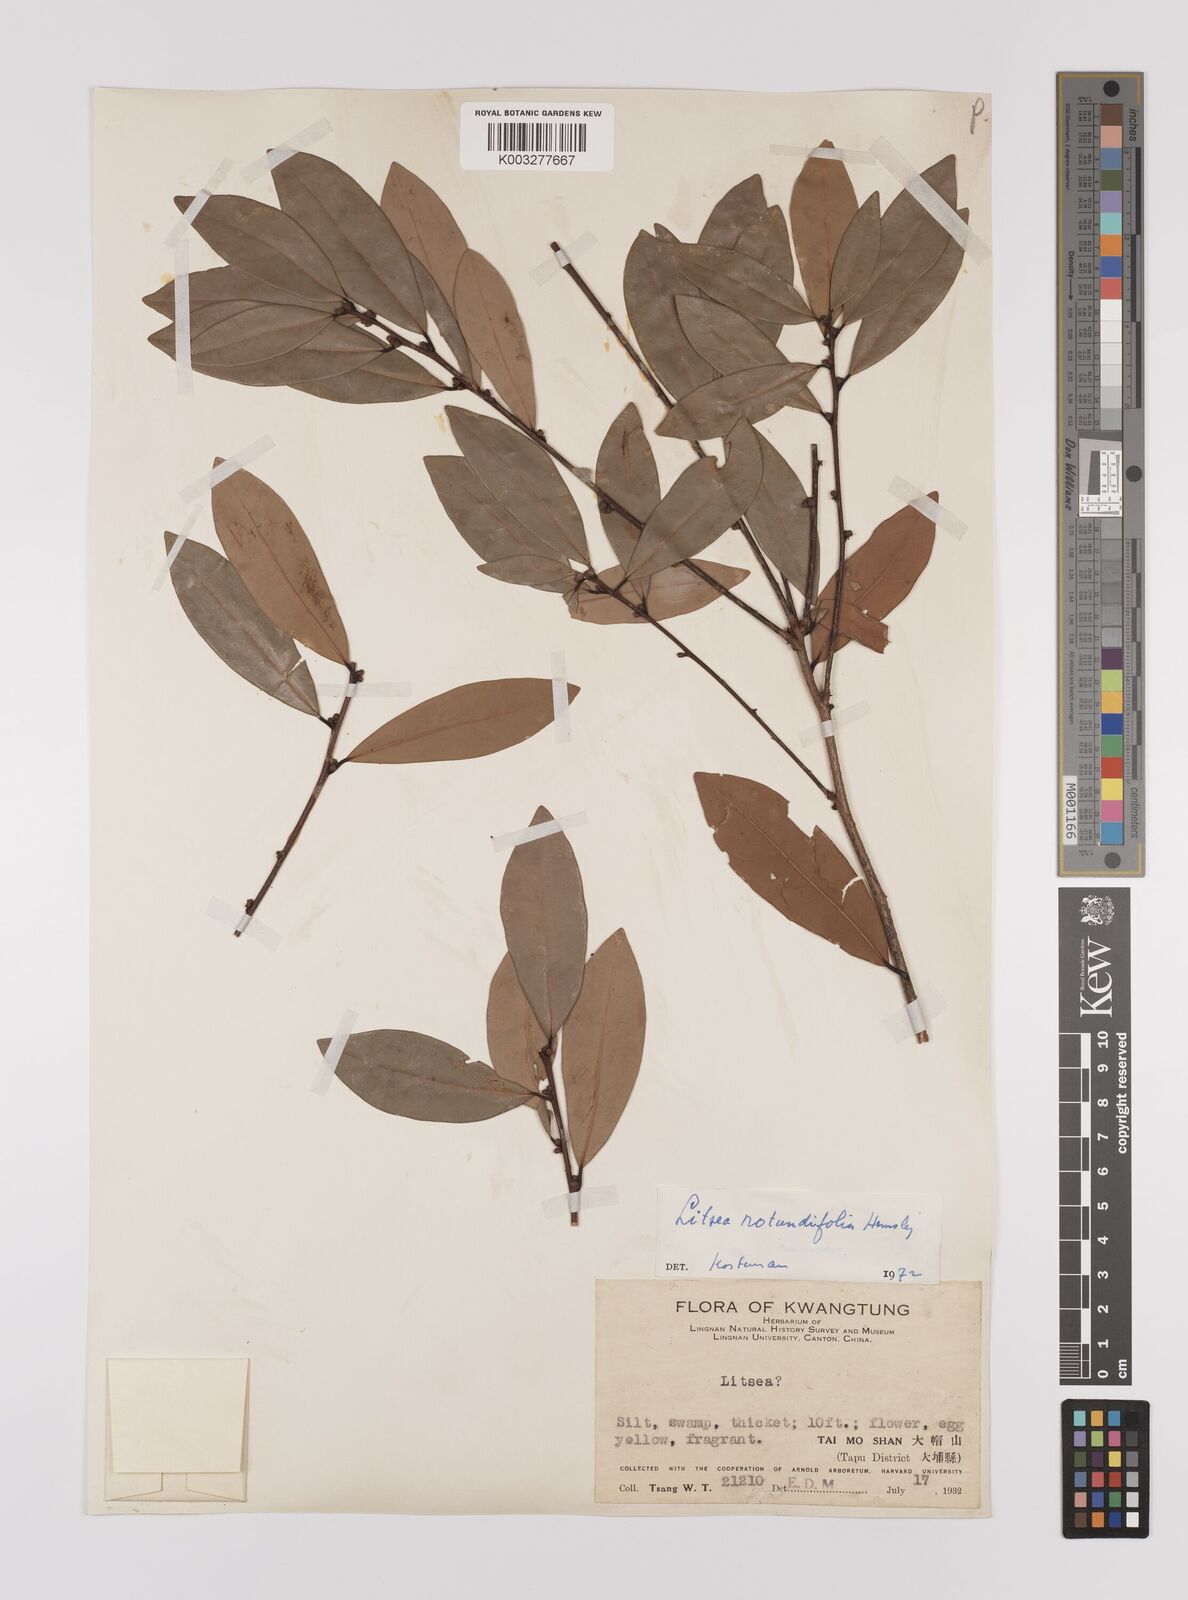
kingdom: Plantae
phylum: Tracheophyta
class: Magnoliopsida
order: Laurales
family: Lauraceae
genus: Litsea
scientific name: Litsea rotundifolia
